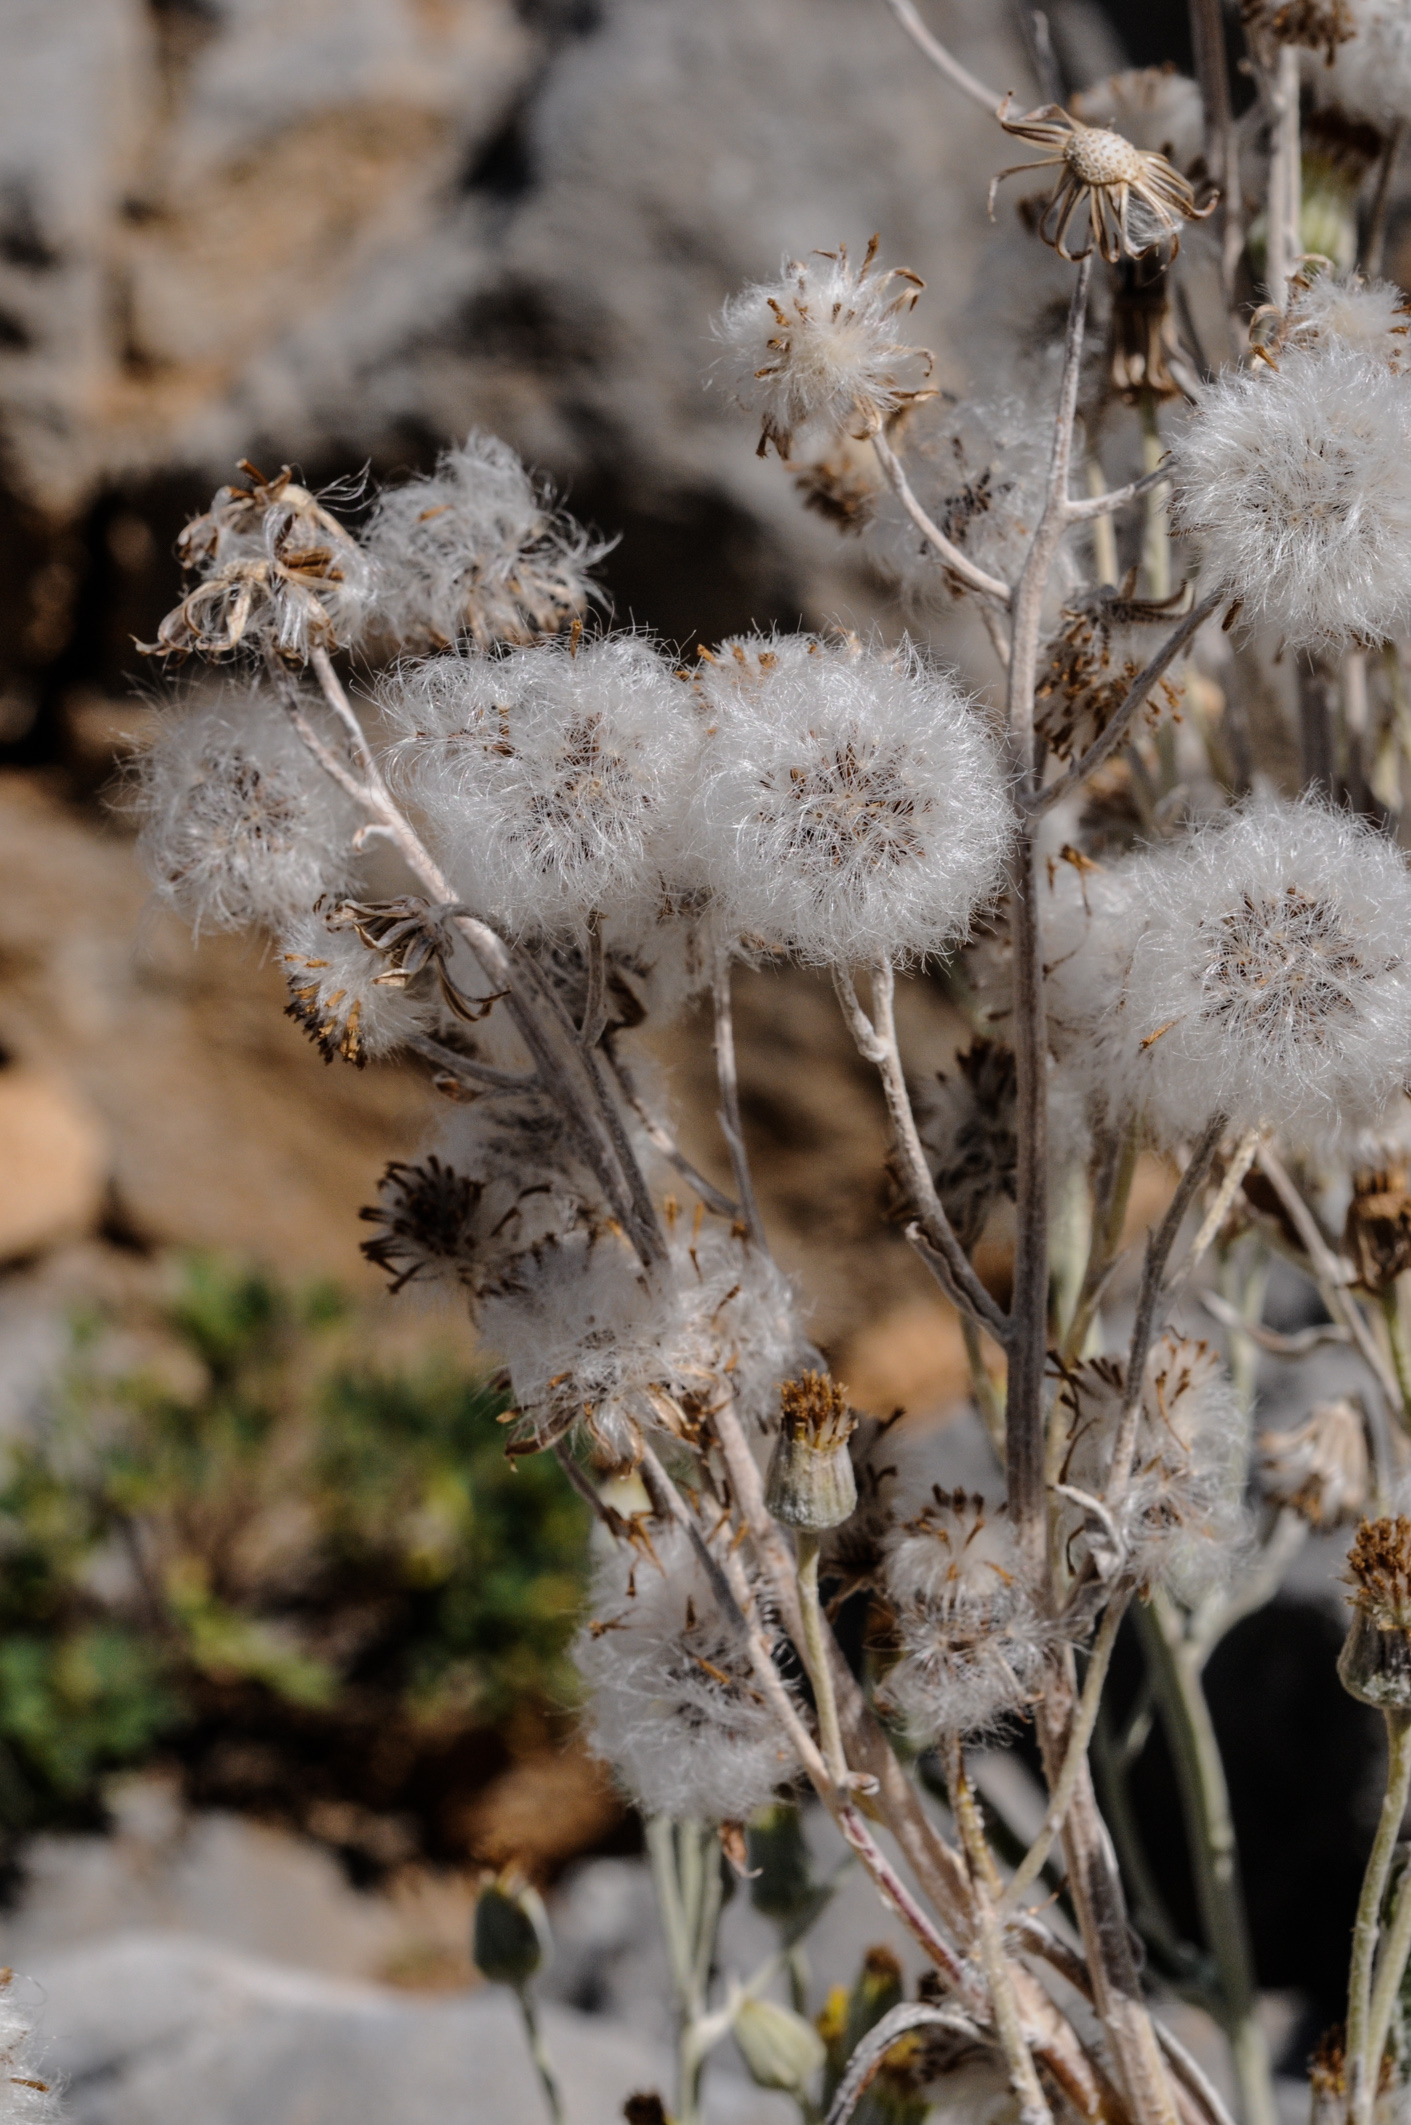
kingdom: Plantae
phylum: Tracheophyta
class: Magnoliopsida
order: Asterales
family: Asteraceae
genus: Senecio
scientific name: Senecio thapsoides
